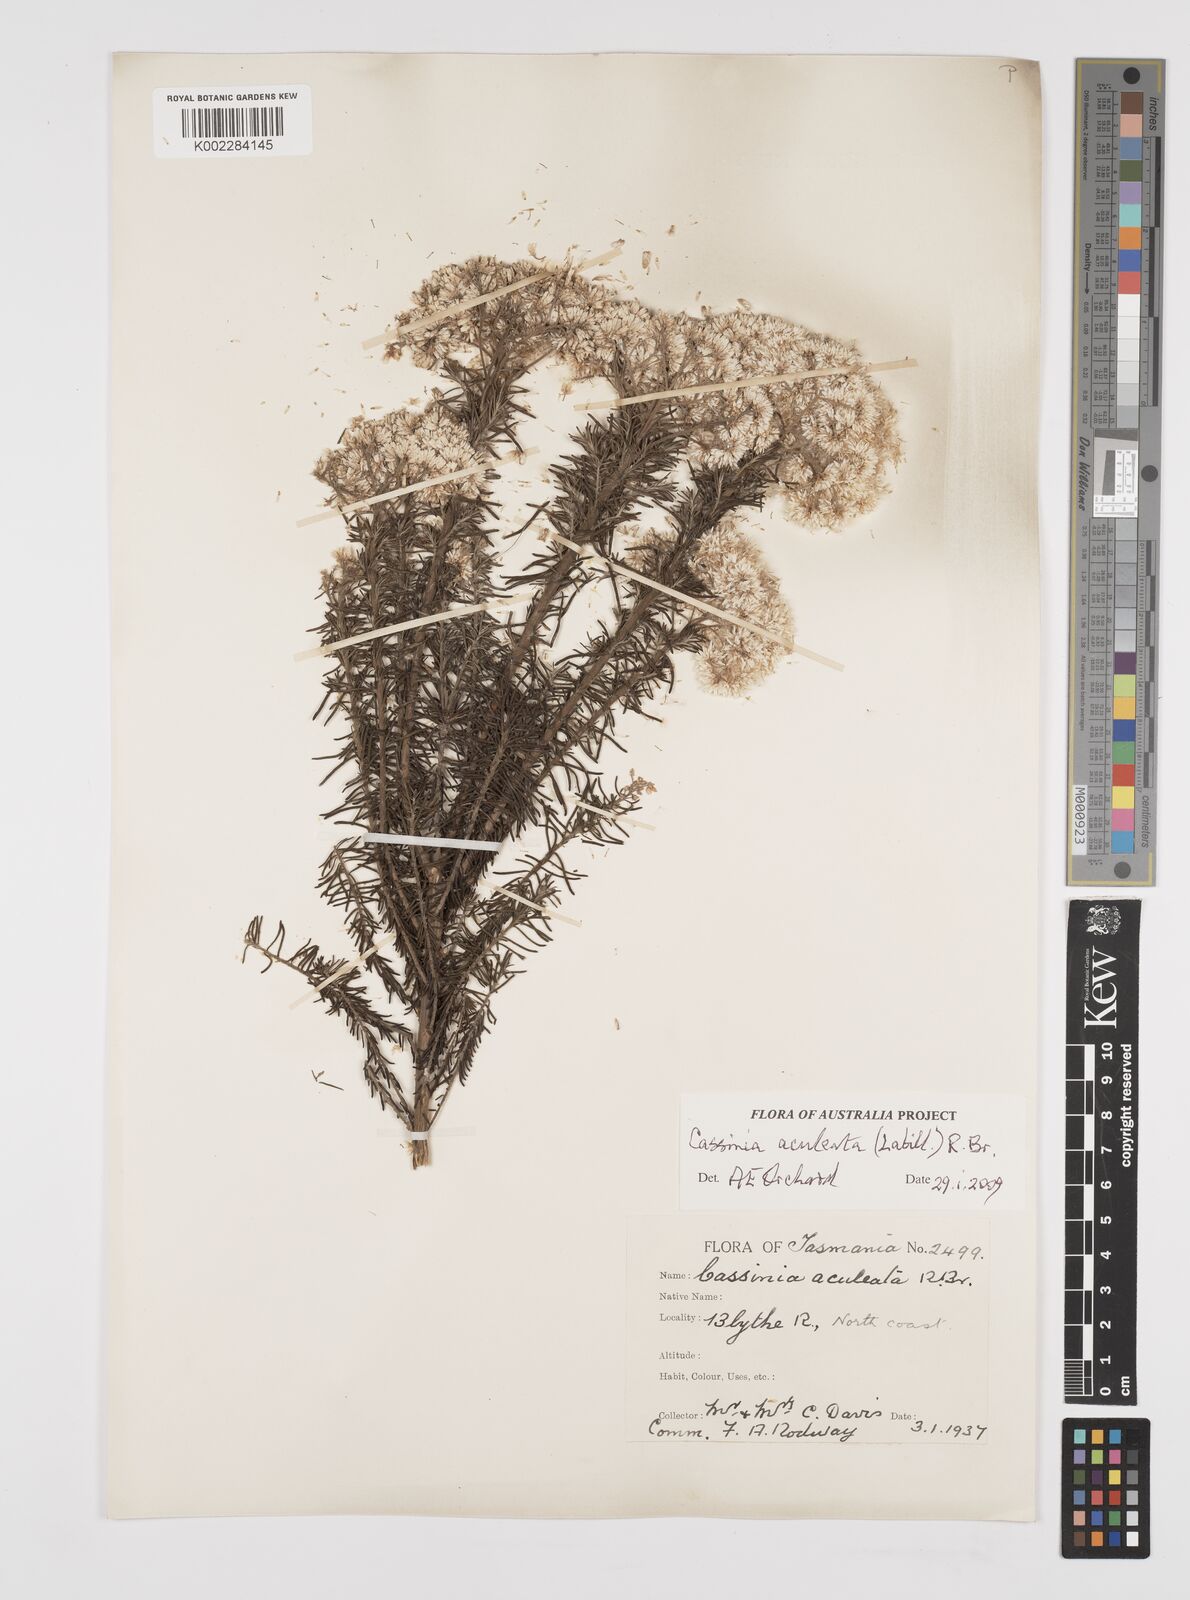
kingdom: Plantae
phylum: Tracheophyta
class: Magnoliopsida
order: Asterales
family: Asteraceae
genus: Cassinia
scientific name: Cassinia aculeata
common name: Australian tauhinu
